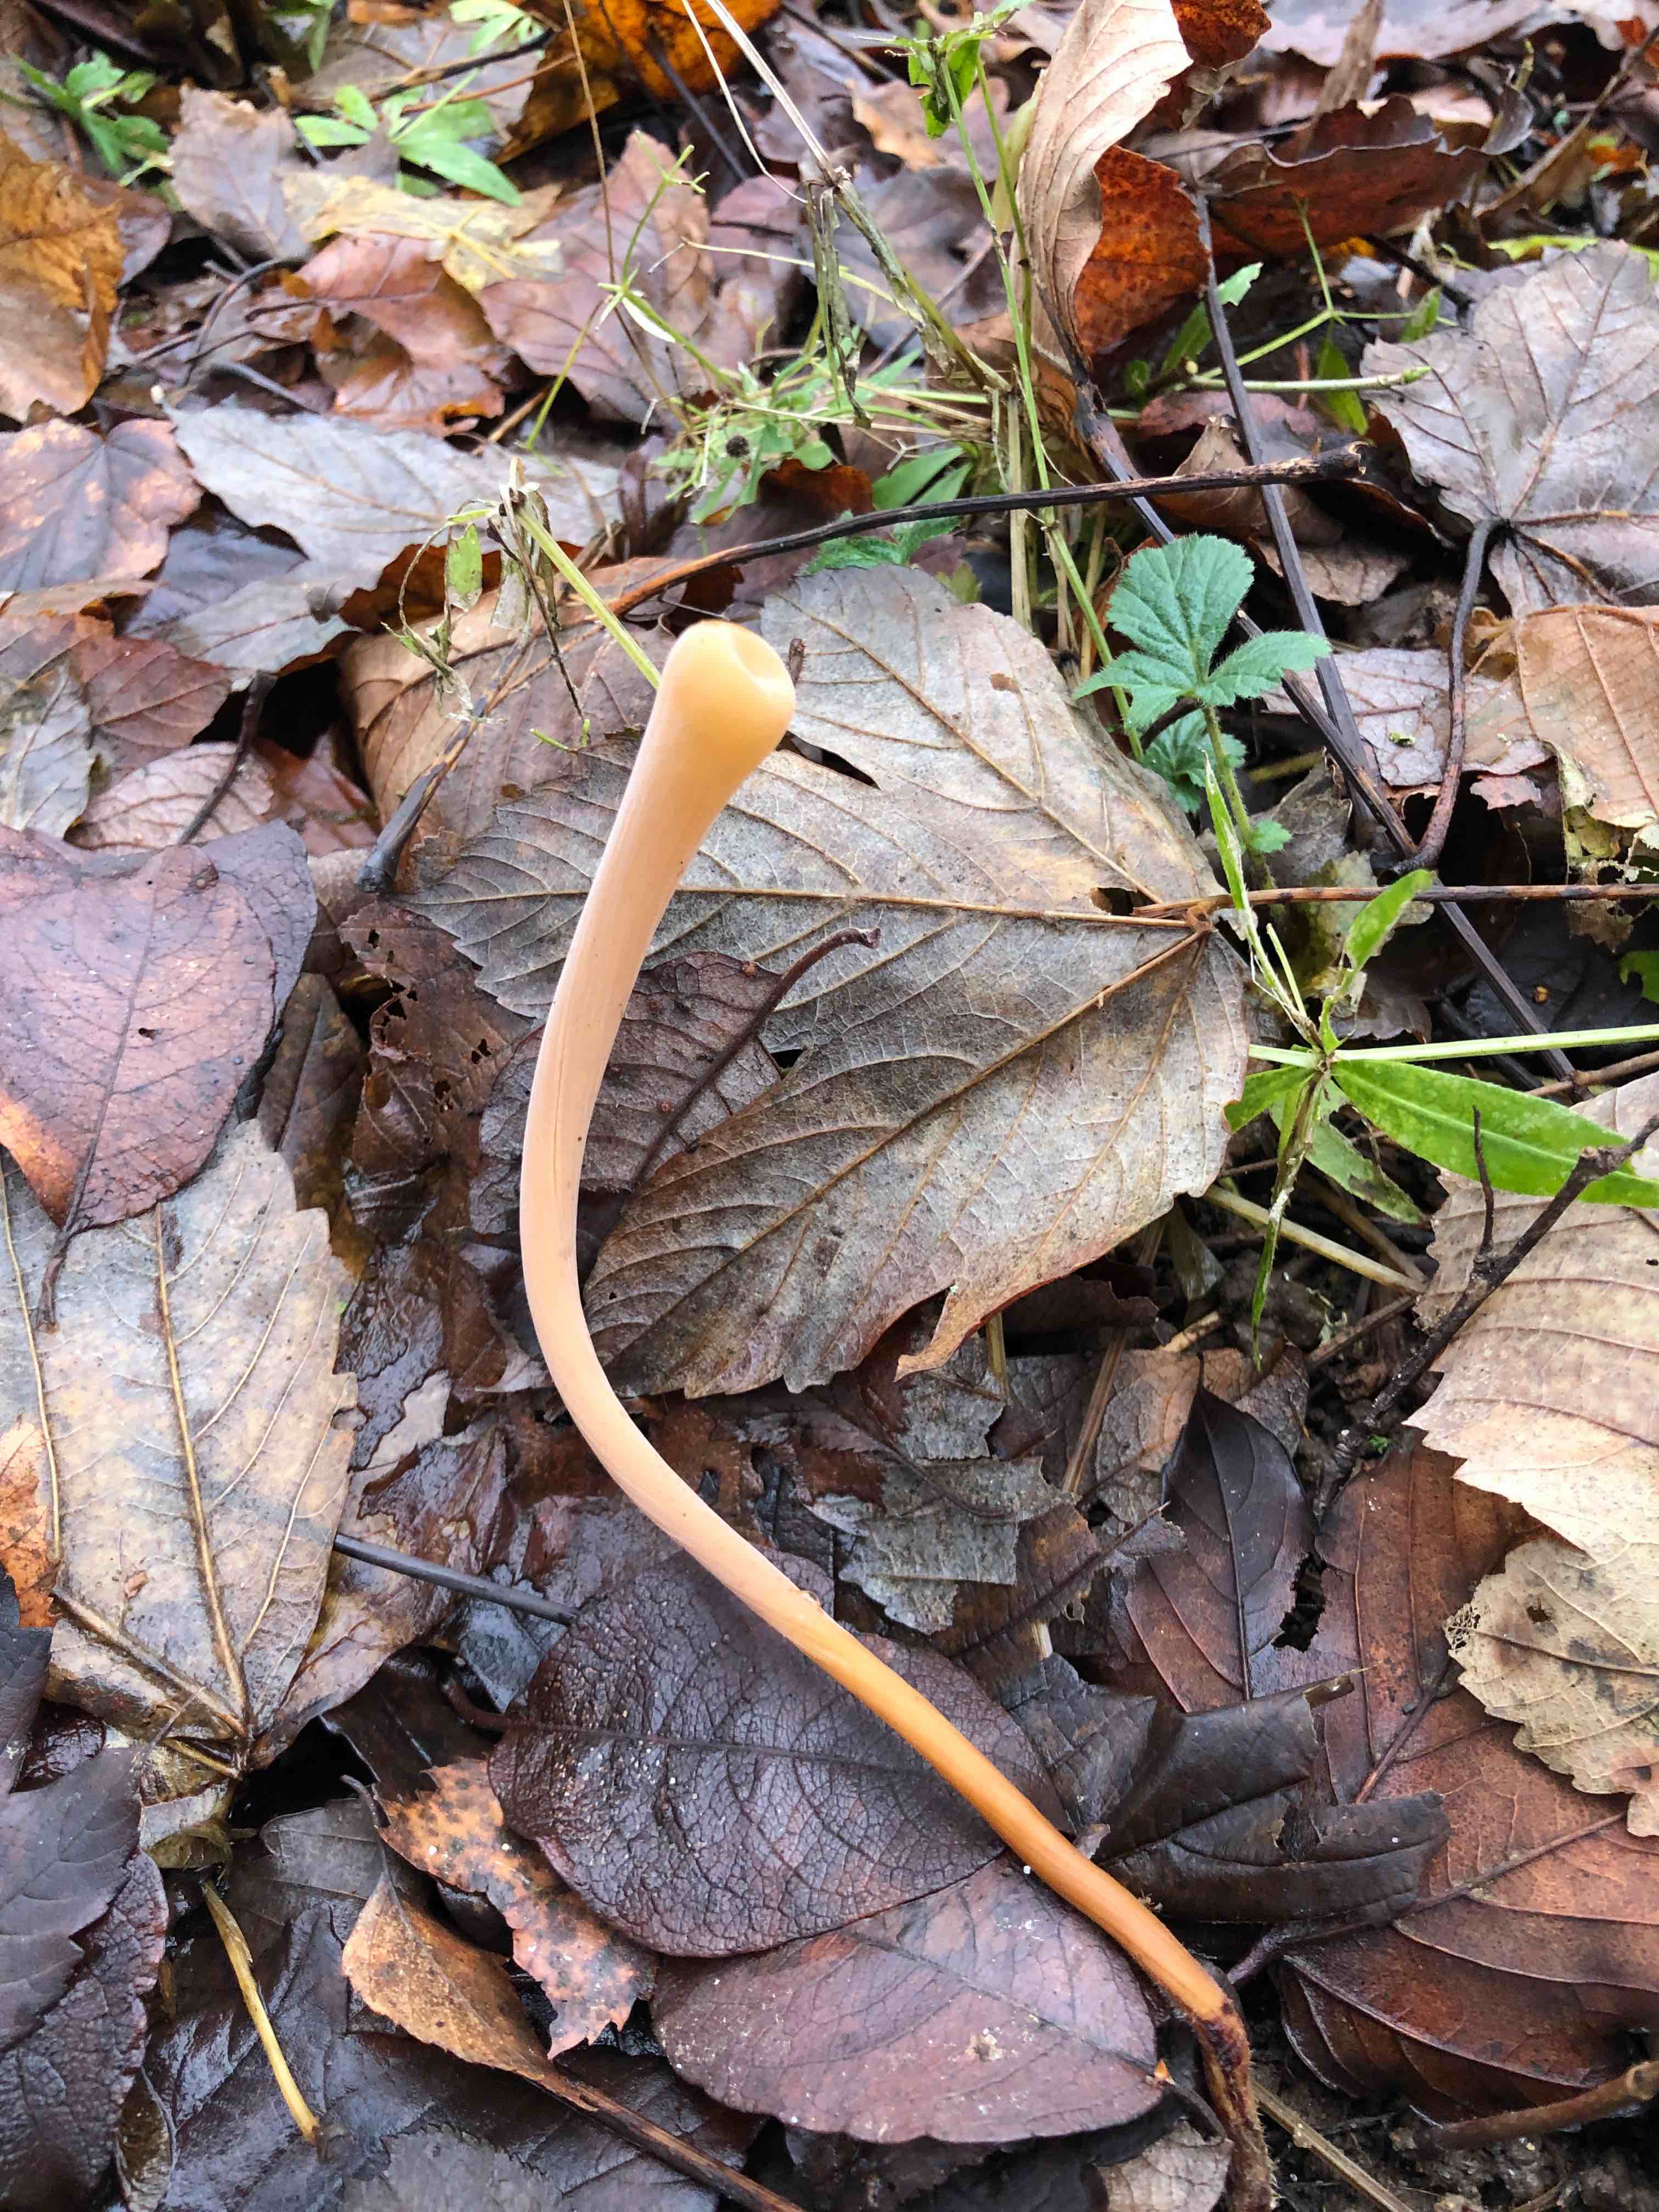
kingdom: Fungi
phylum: Basidiomycota
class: Agaricomycetes
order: Agaricales
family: Typhulaceae
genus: Typhula
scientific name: Typhula fistulosa
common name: pibet rørkølle
